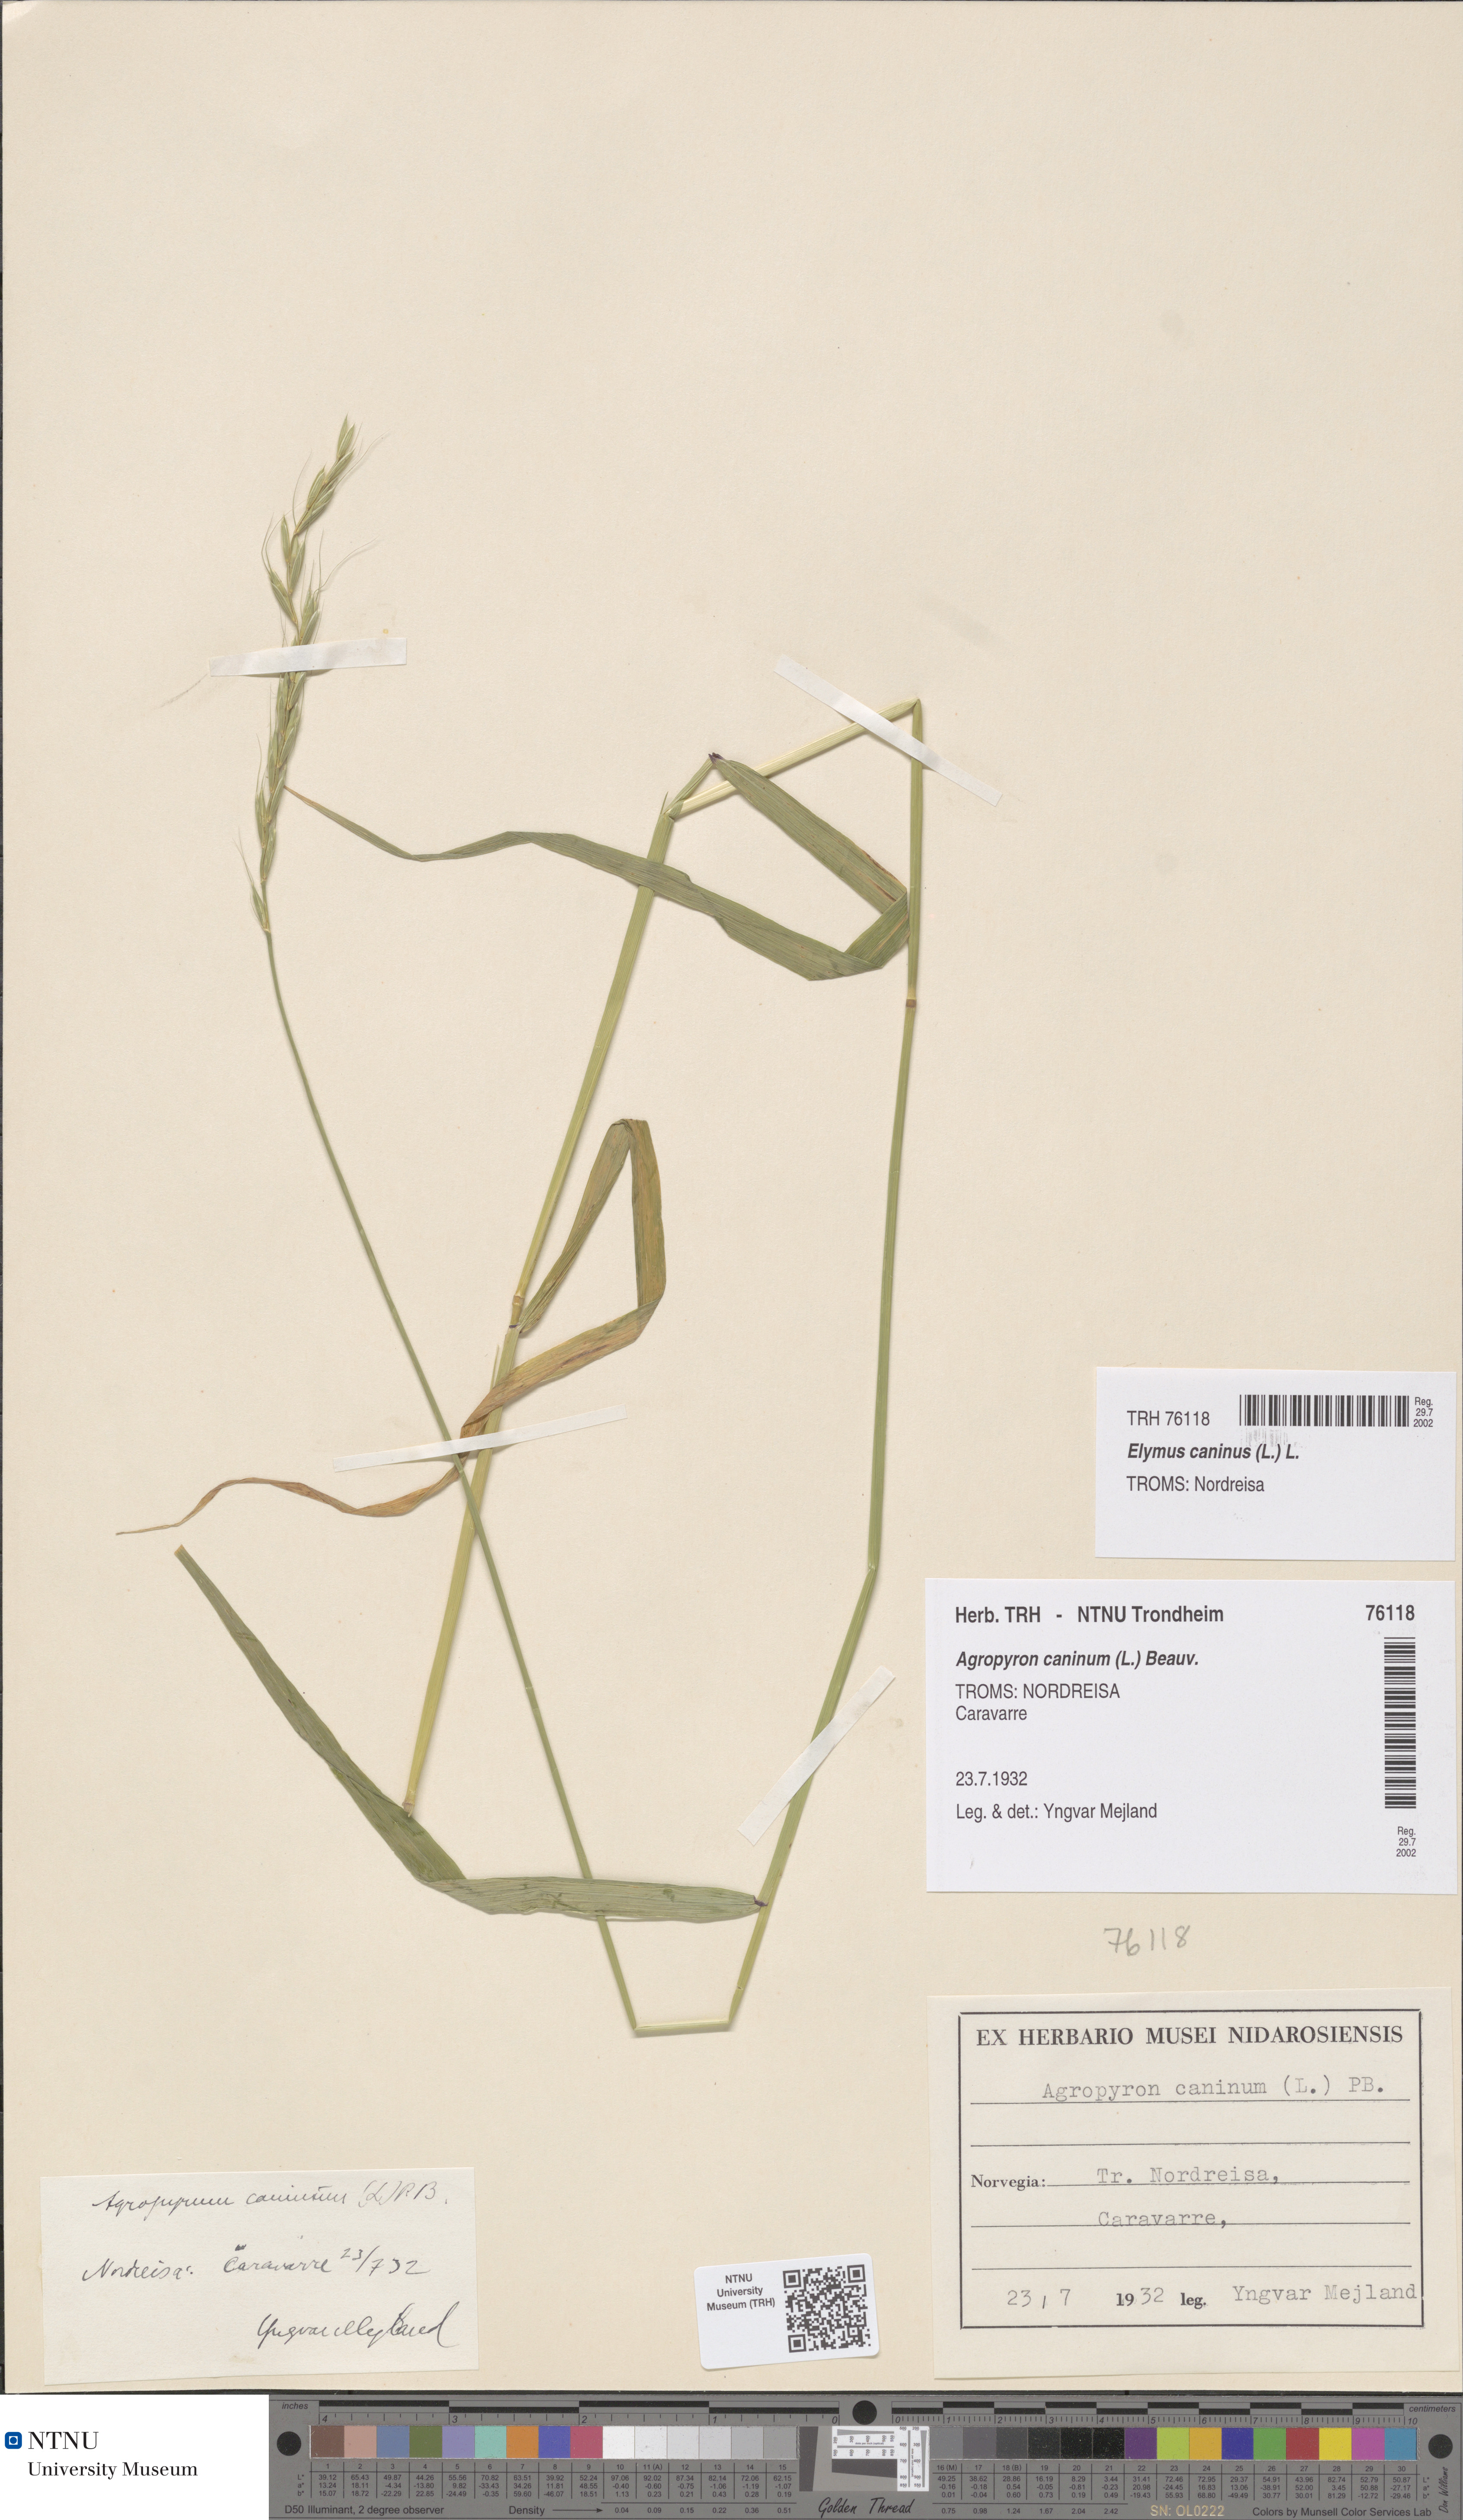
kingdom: Plantae
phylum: Tracheophyta
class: Liliopsida
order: Poales
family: Poaceae
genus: Elymus
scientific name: Elymus caninus
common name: Bearded couch
